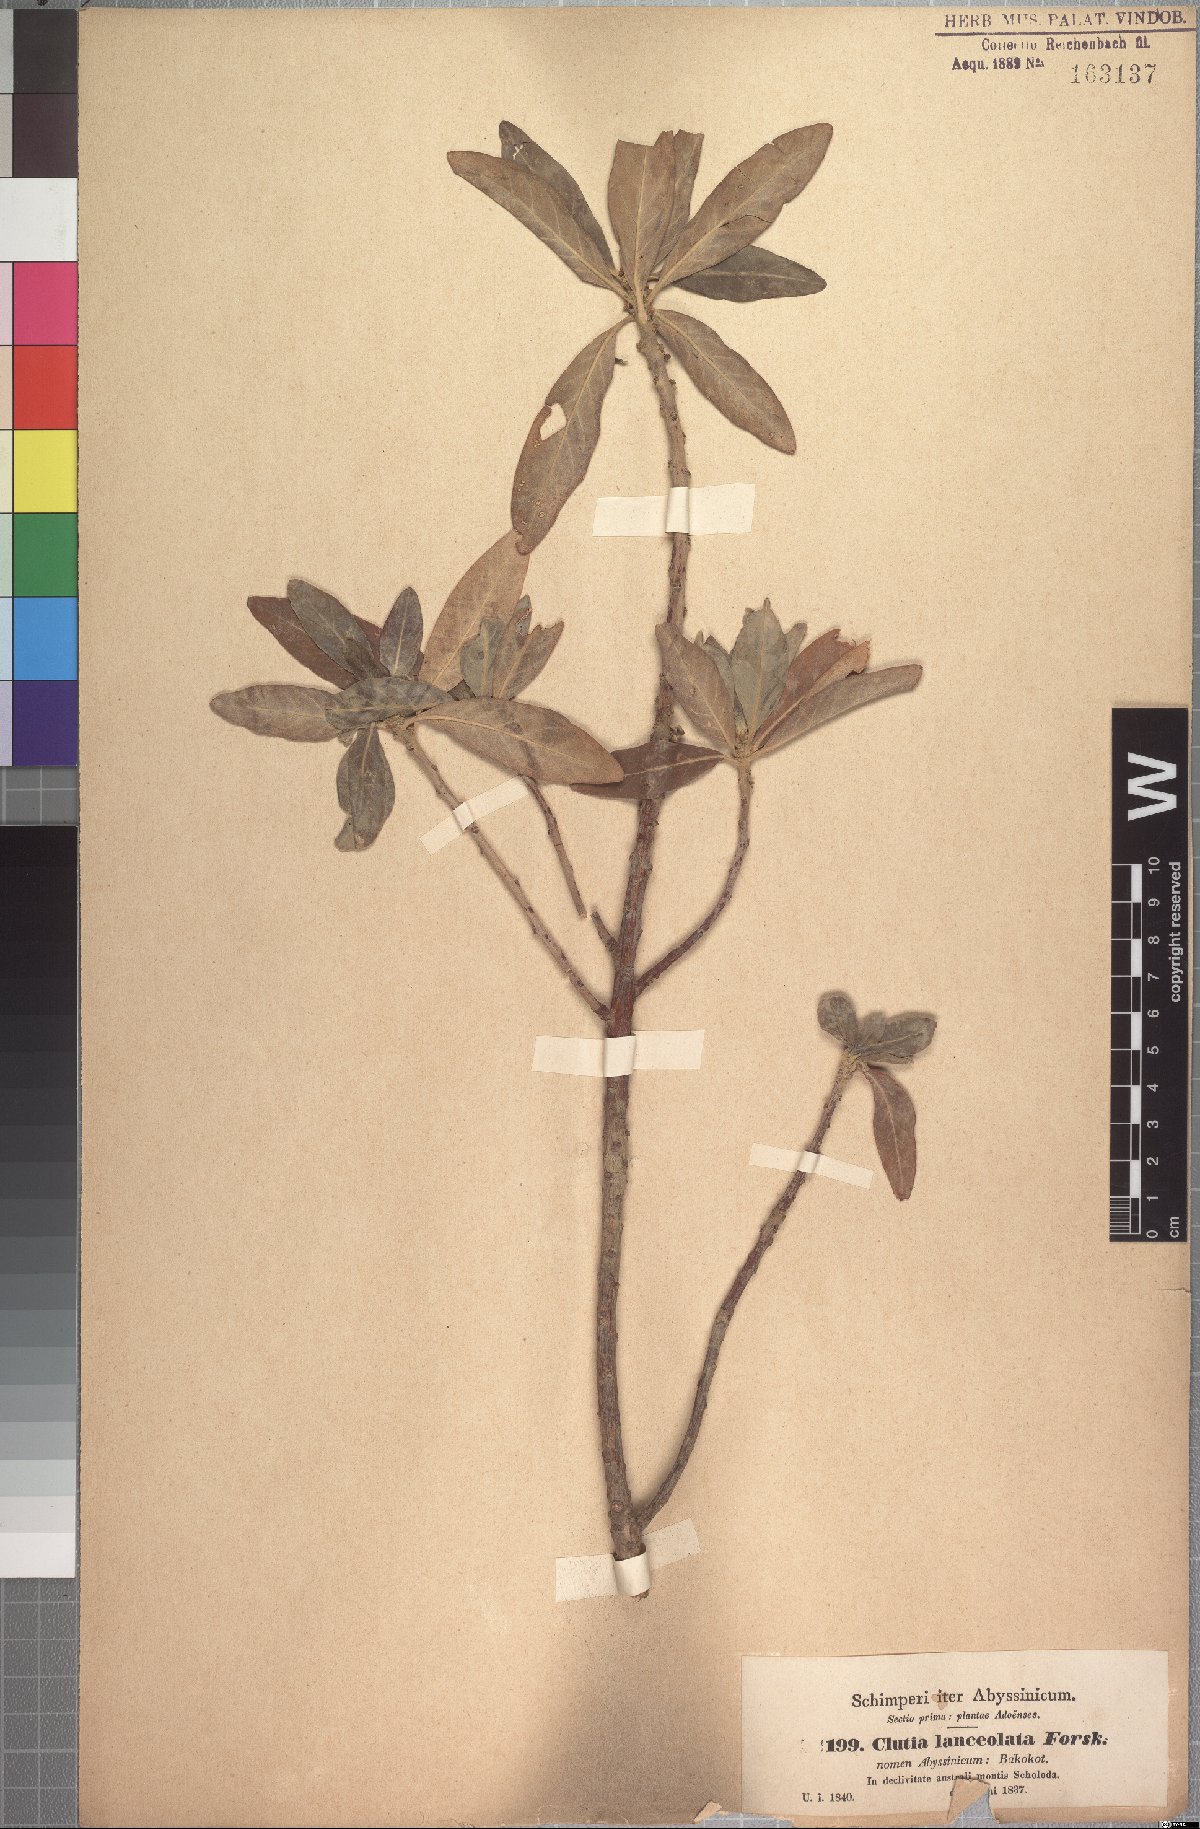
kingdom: Plantae
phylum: Tracheophyta
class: Magnoliopsida
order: Malpighiales
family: Peraceae
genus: Clutia
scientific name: Clutia lanceolata
